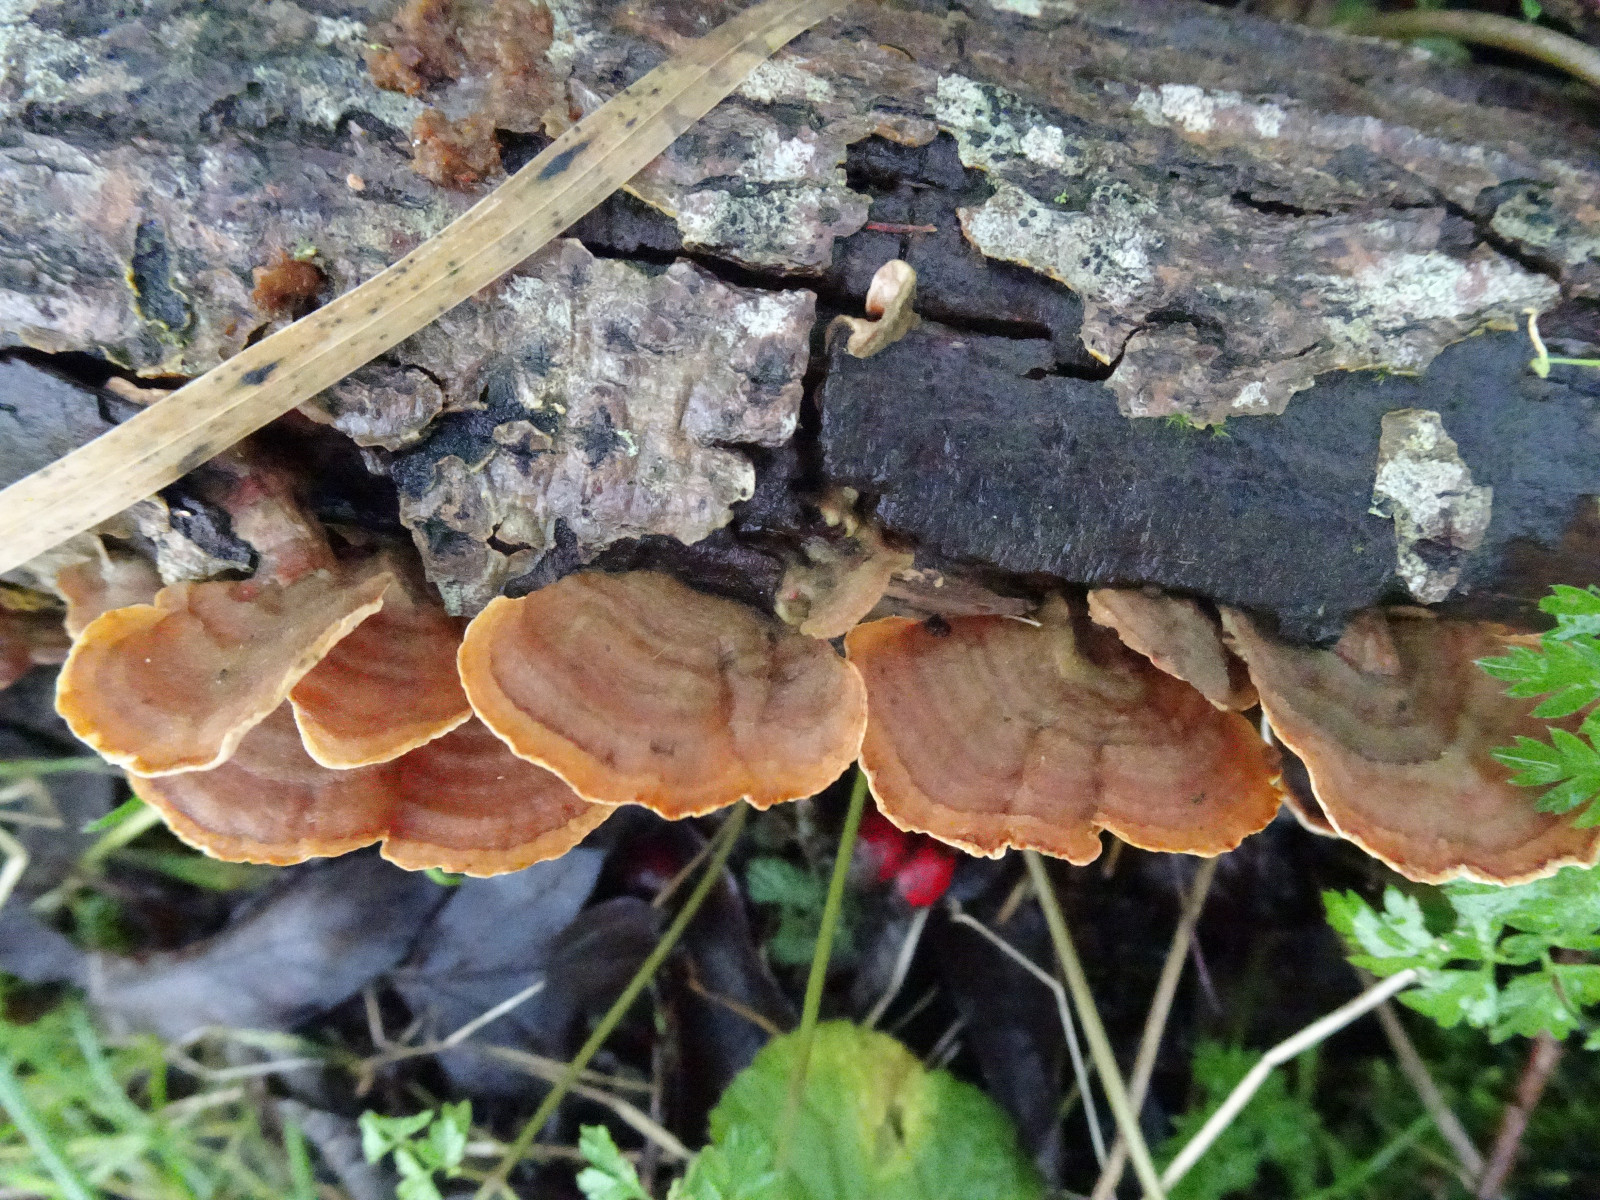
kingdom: Fungi
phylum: Basidiomycota
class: Agaricomycetes
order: Russulales
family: Stereaceae
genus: Stereum
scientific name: Stereum subtomentosum
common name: smuk lædersvamp
